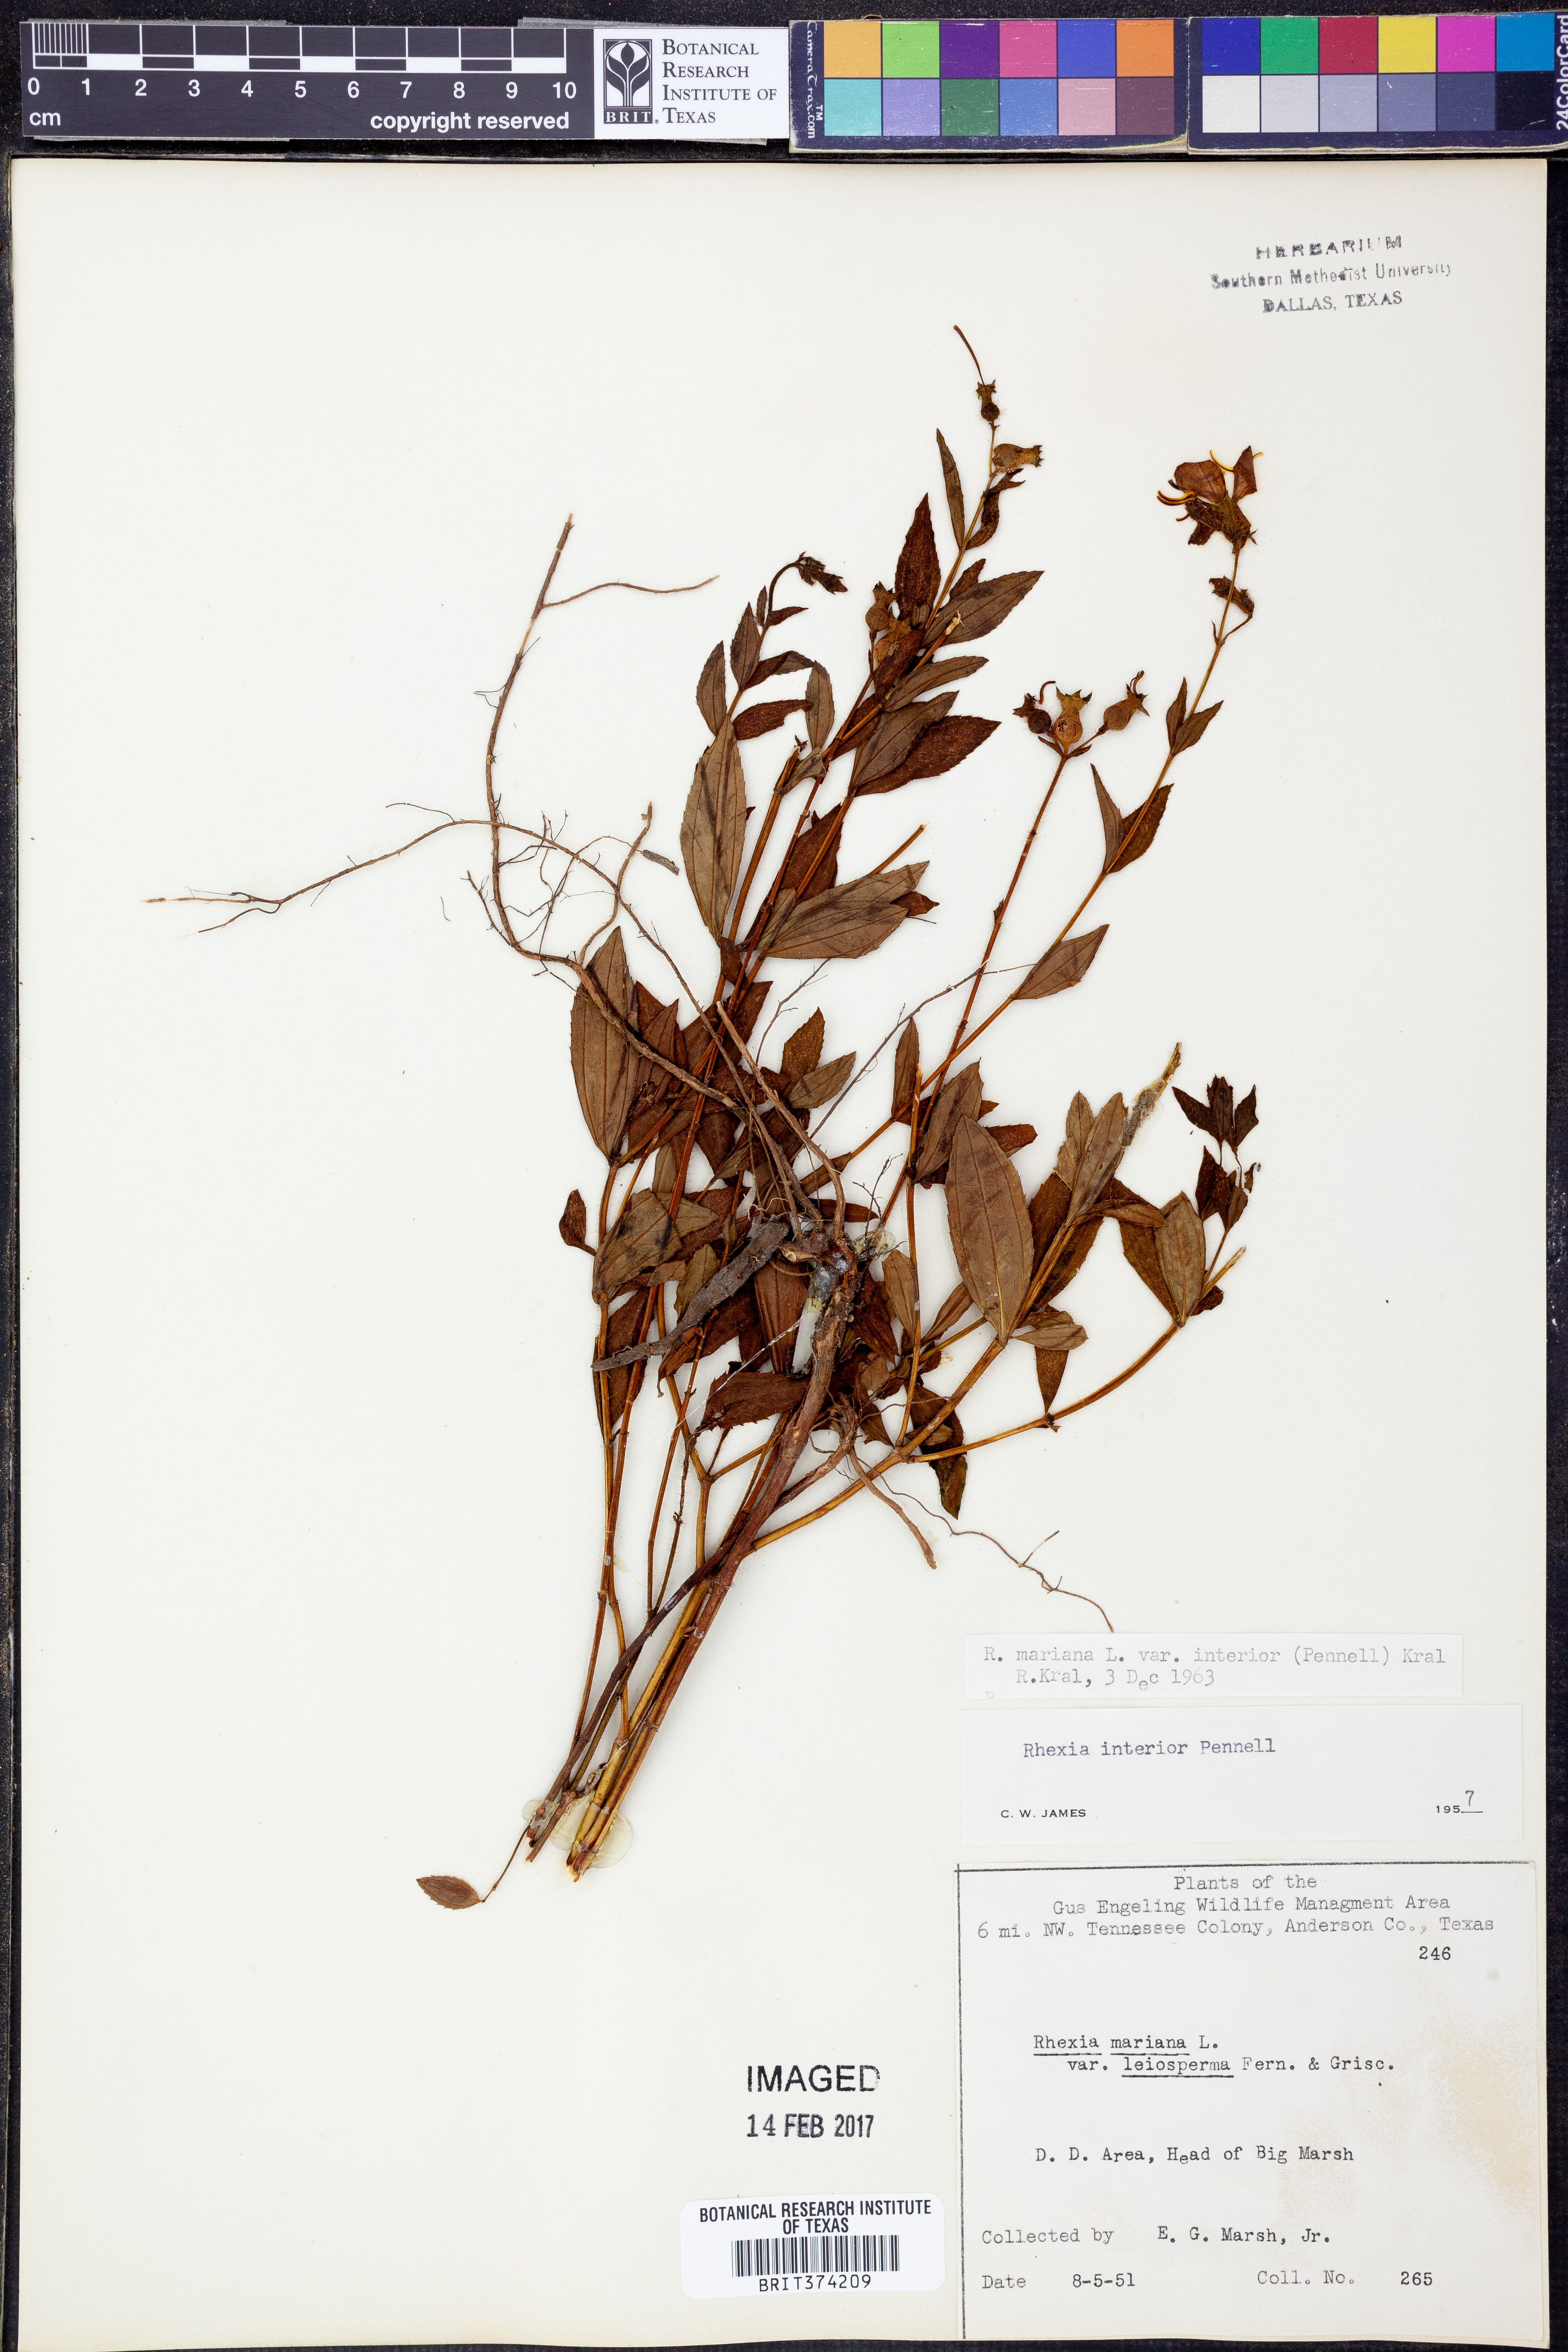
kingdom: Plantae
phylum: Tracheophyta
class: Magnoliopsida
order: Myrtales
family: Melastomataceae
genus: Rhexia
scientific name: Rhexia interior
